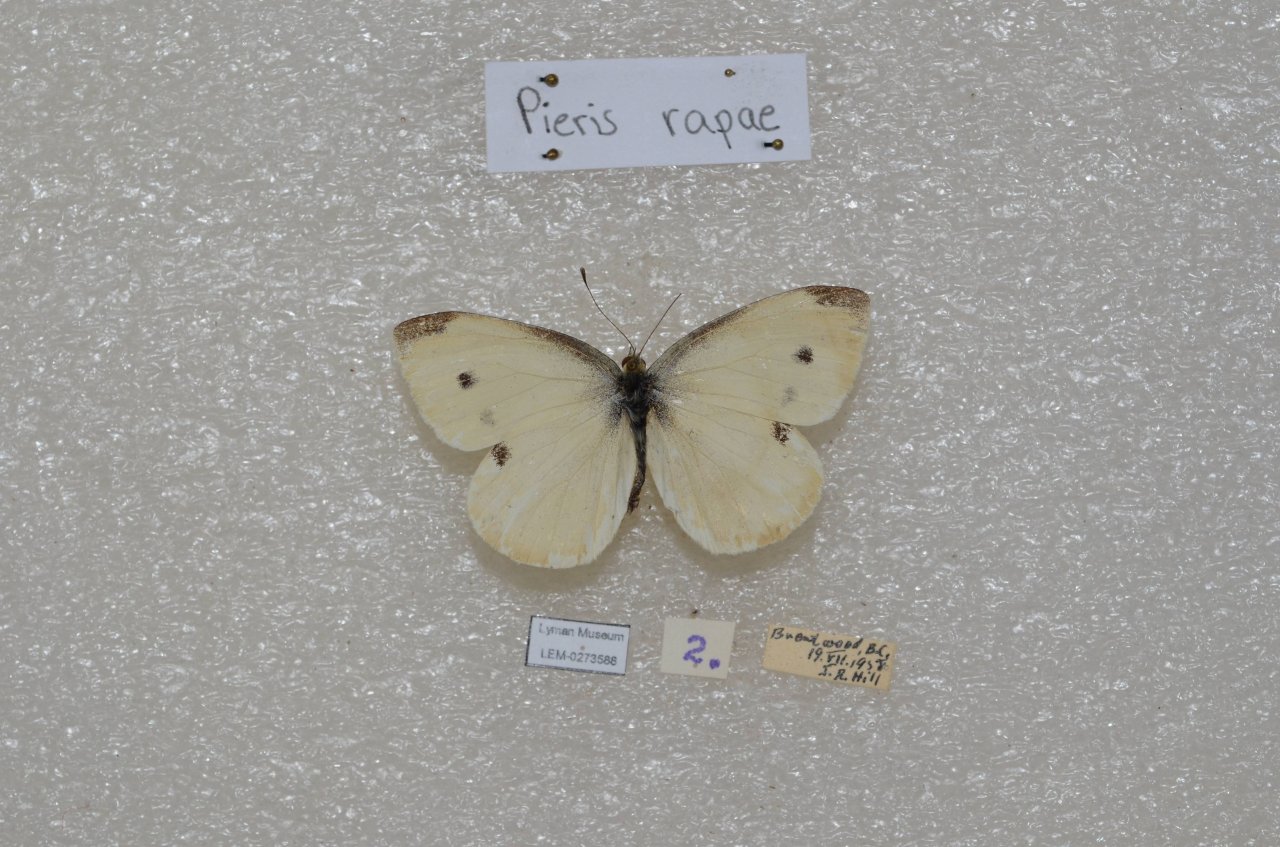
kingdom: Animalia
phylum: Arthropoda
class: Insecta
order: Lepidoptera
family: Pieridae
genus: Pieris
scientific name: Pieris rapae
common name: Cabbage White
